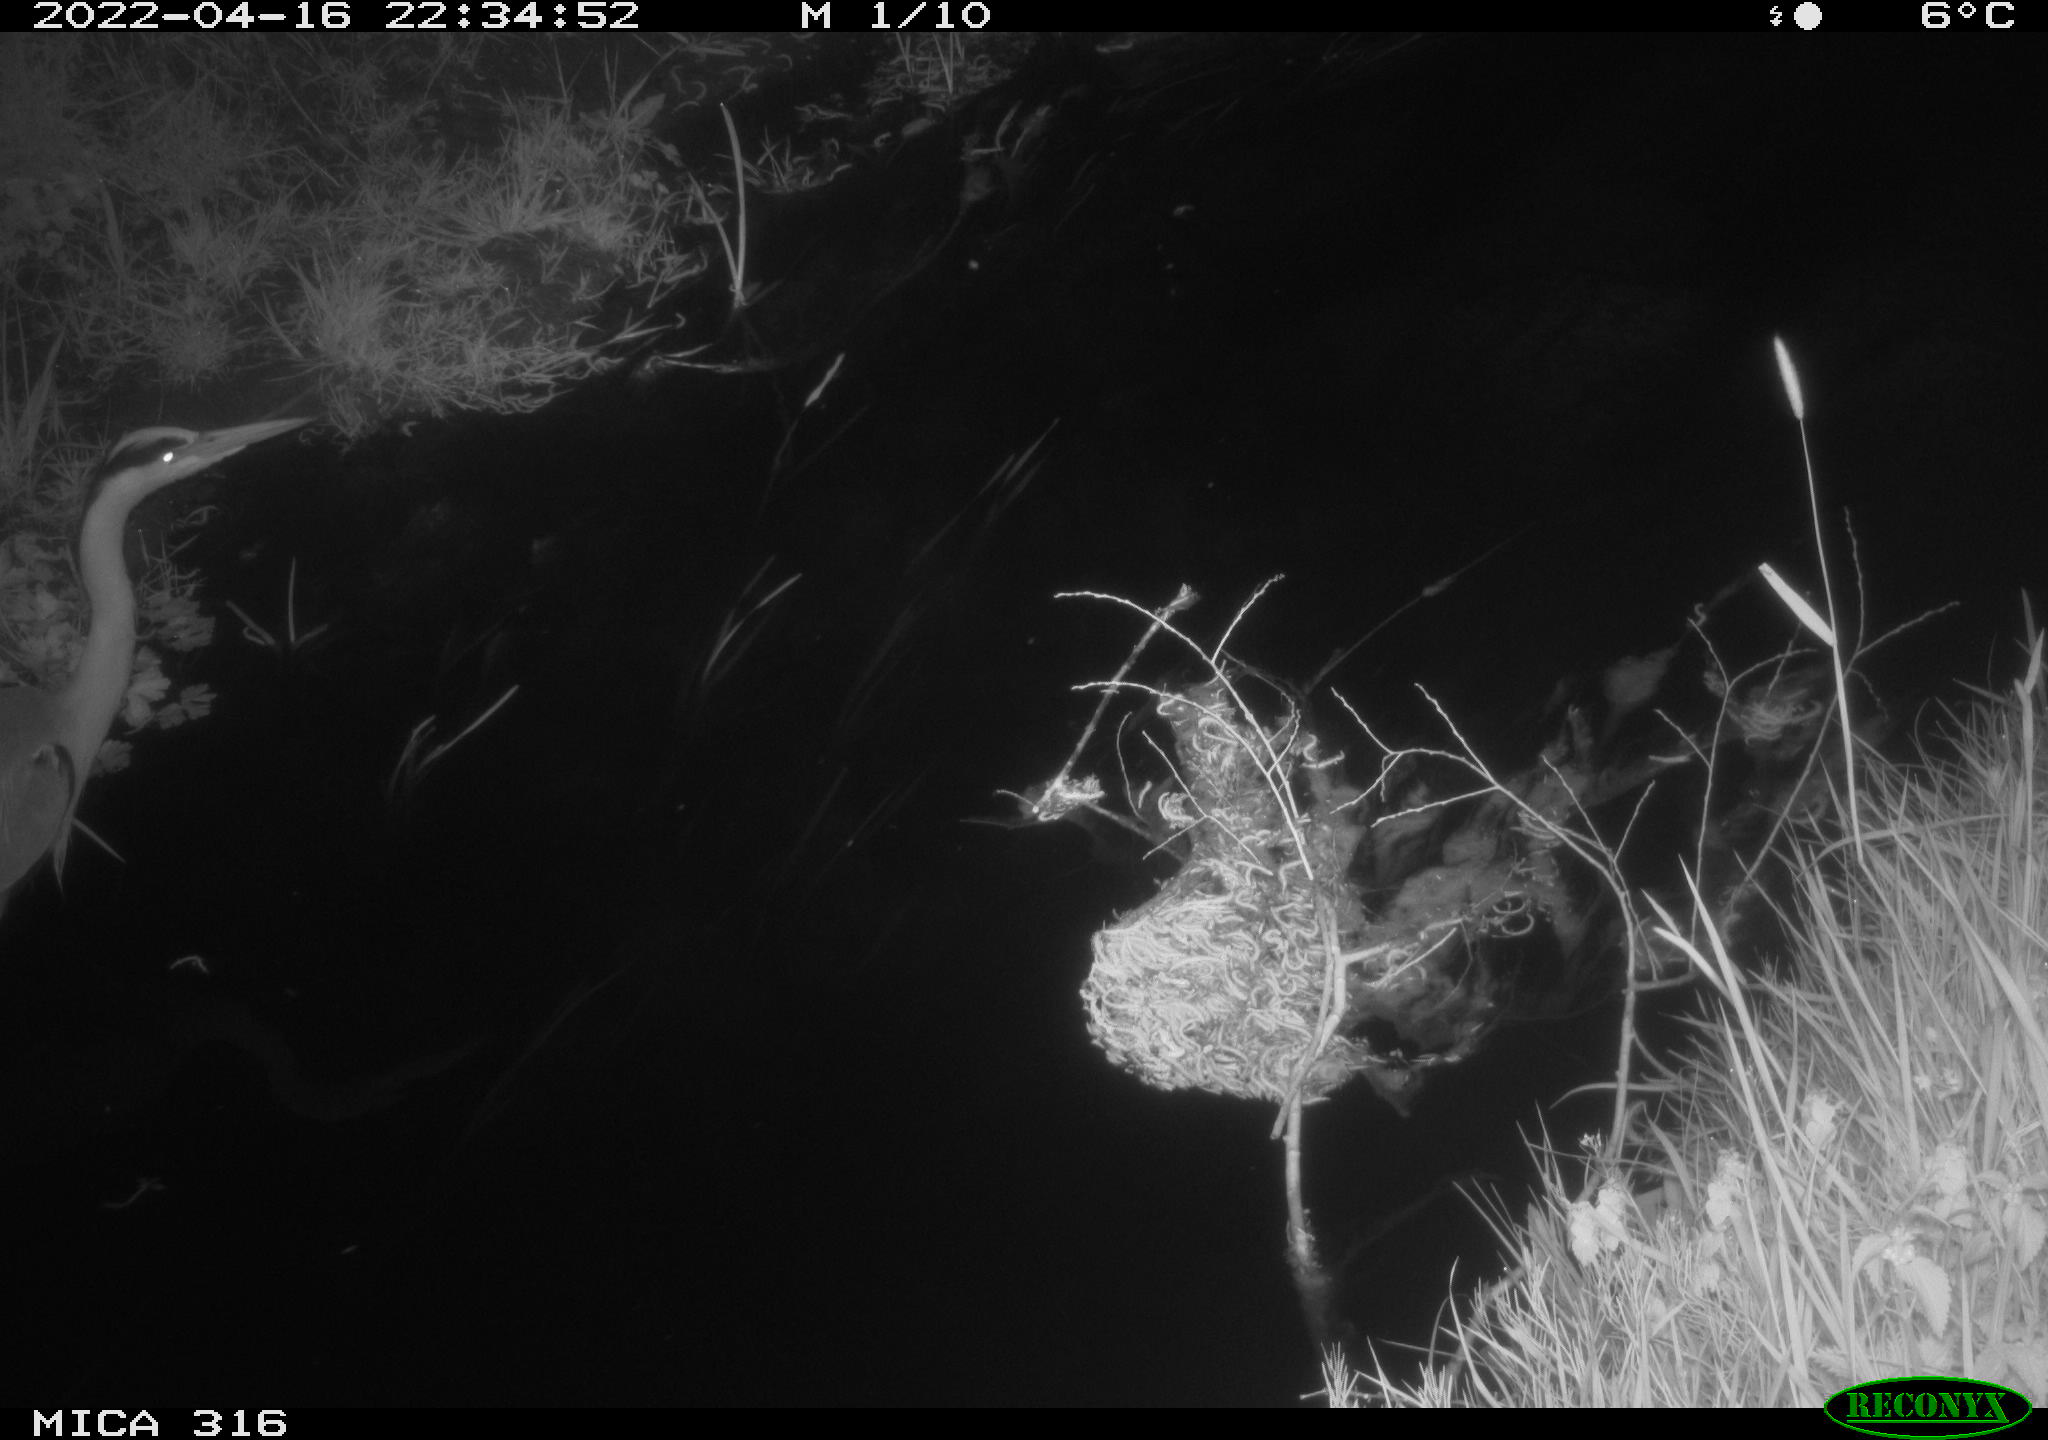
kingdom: Animalia
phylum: Chordata
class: Aves
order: Pelecaniformes
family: Ardeidae
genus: Ardea
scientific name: Ardea
